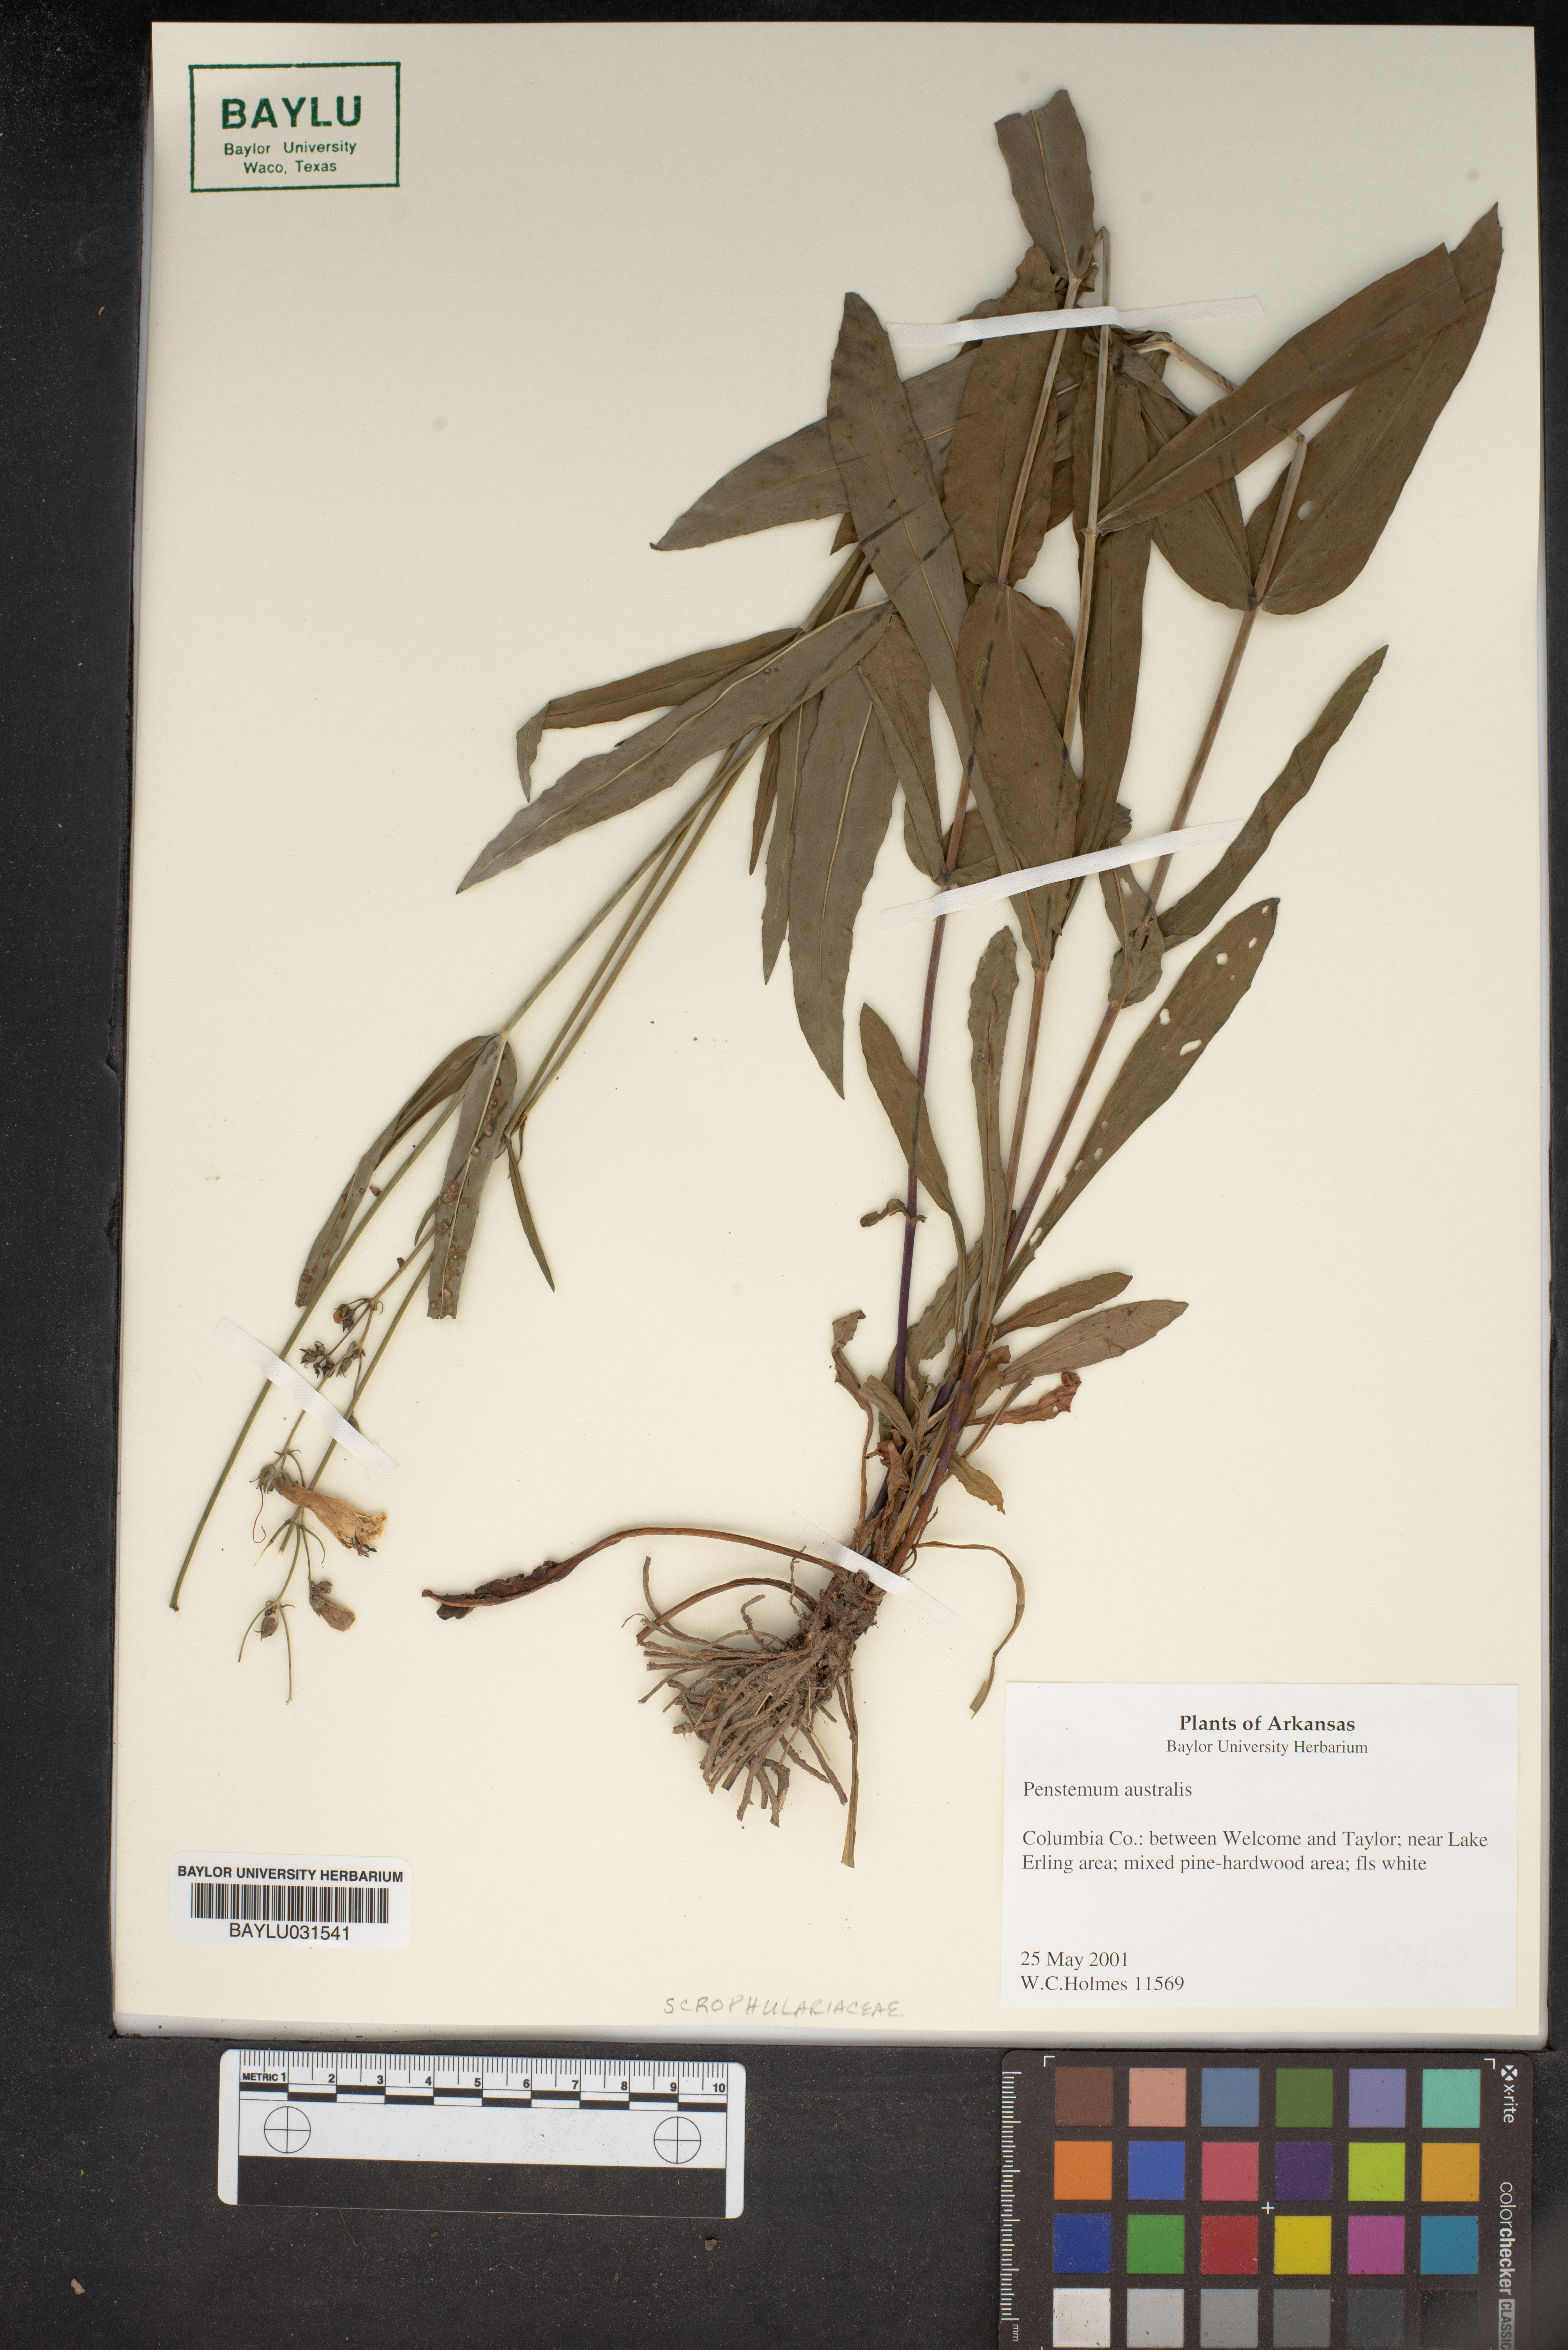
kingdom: Plantae
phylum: Tracheophyta
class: Magnoliopsida
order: Lamiales
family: Plantaginaceae
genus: Penstemon
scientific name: Penstemon australis
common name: Southeastern beardtongue
